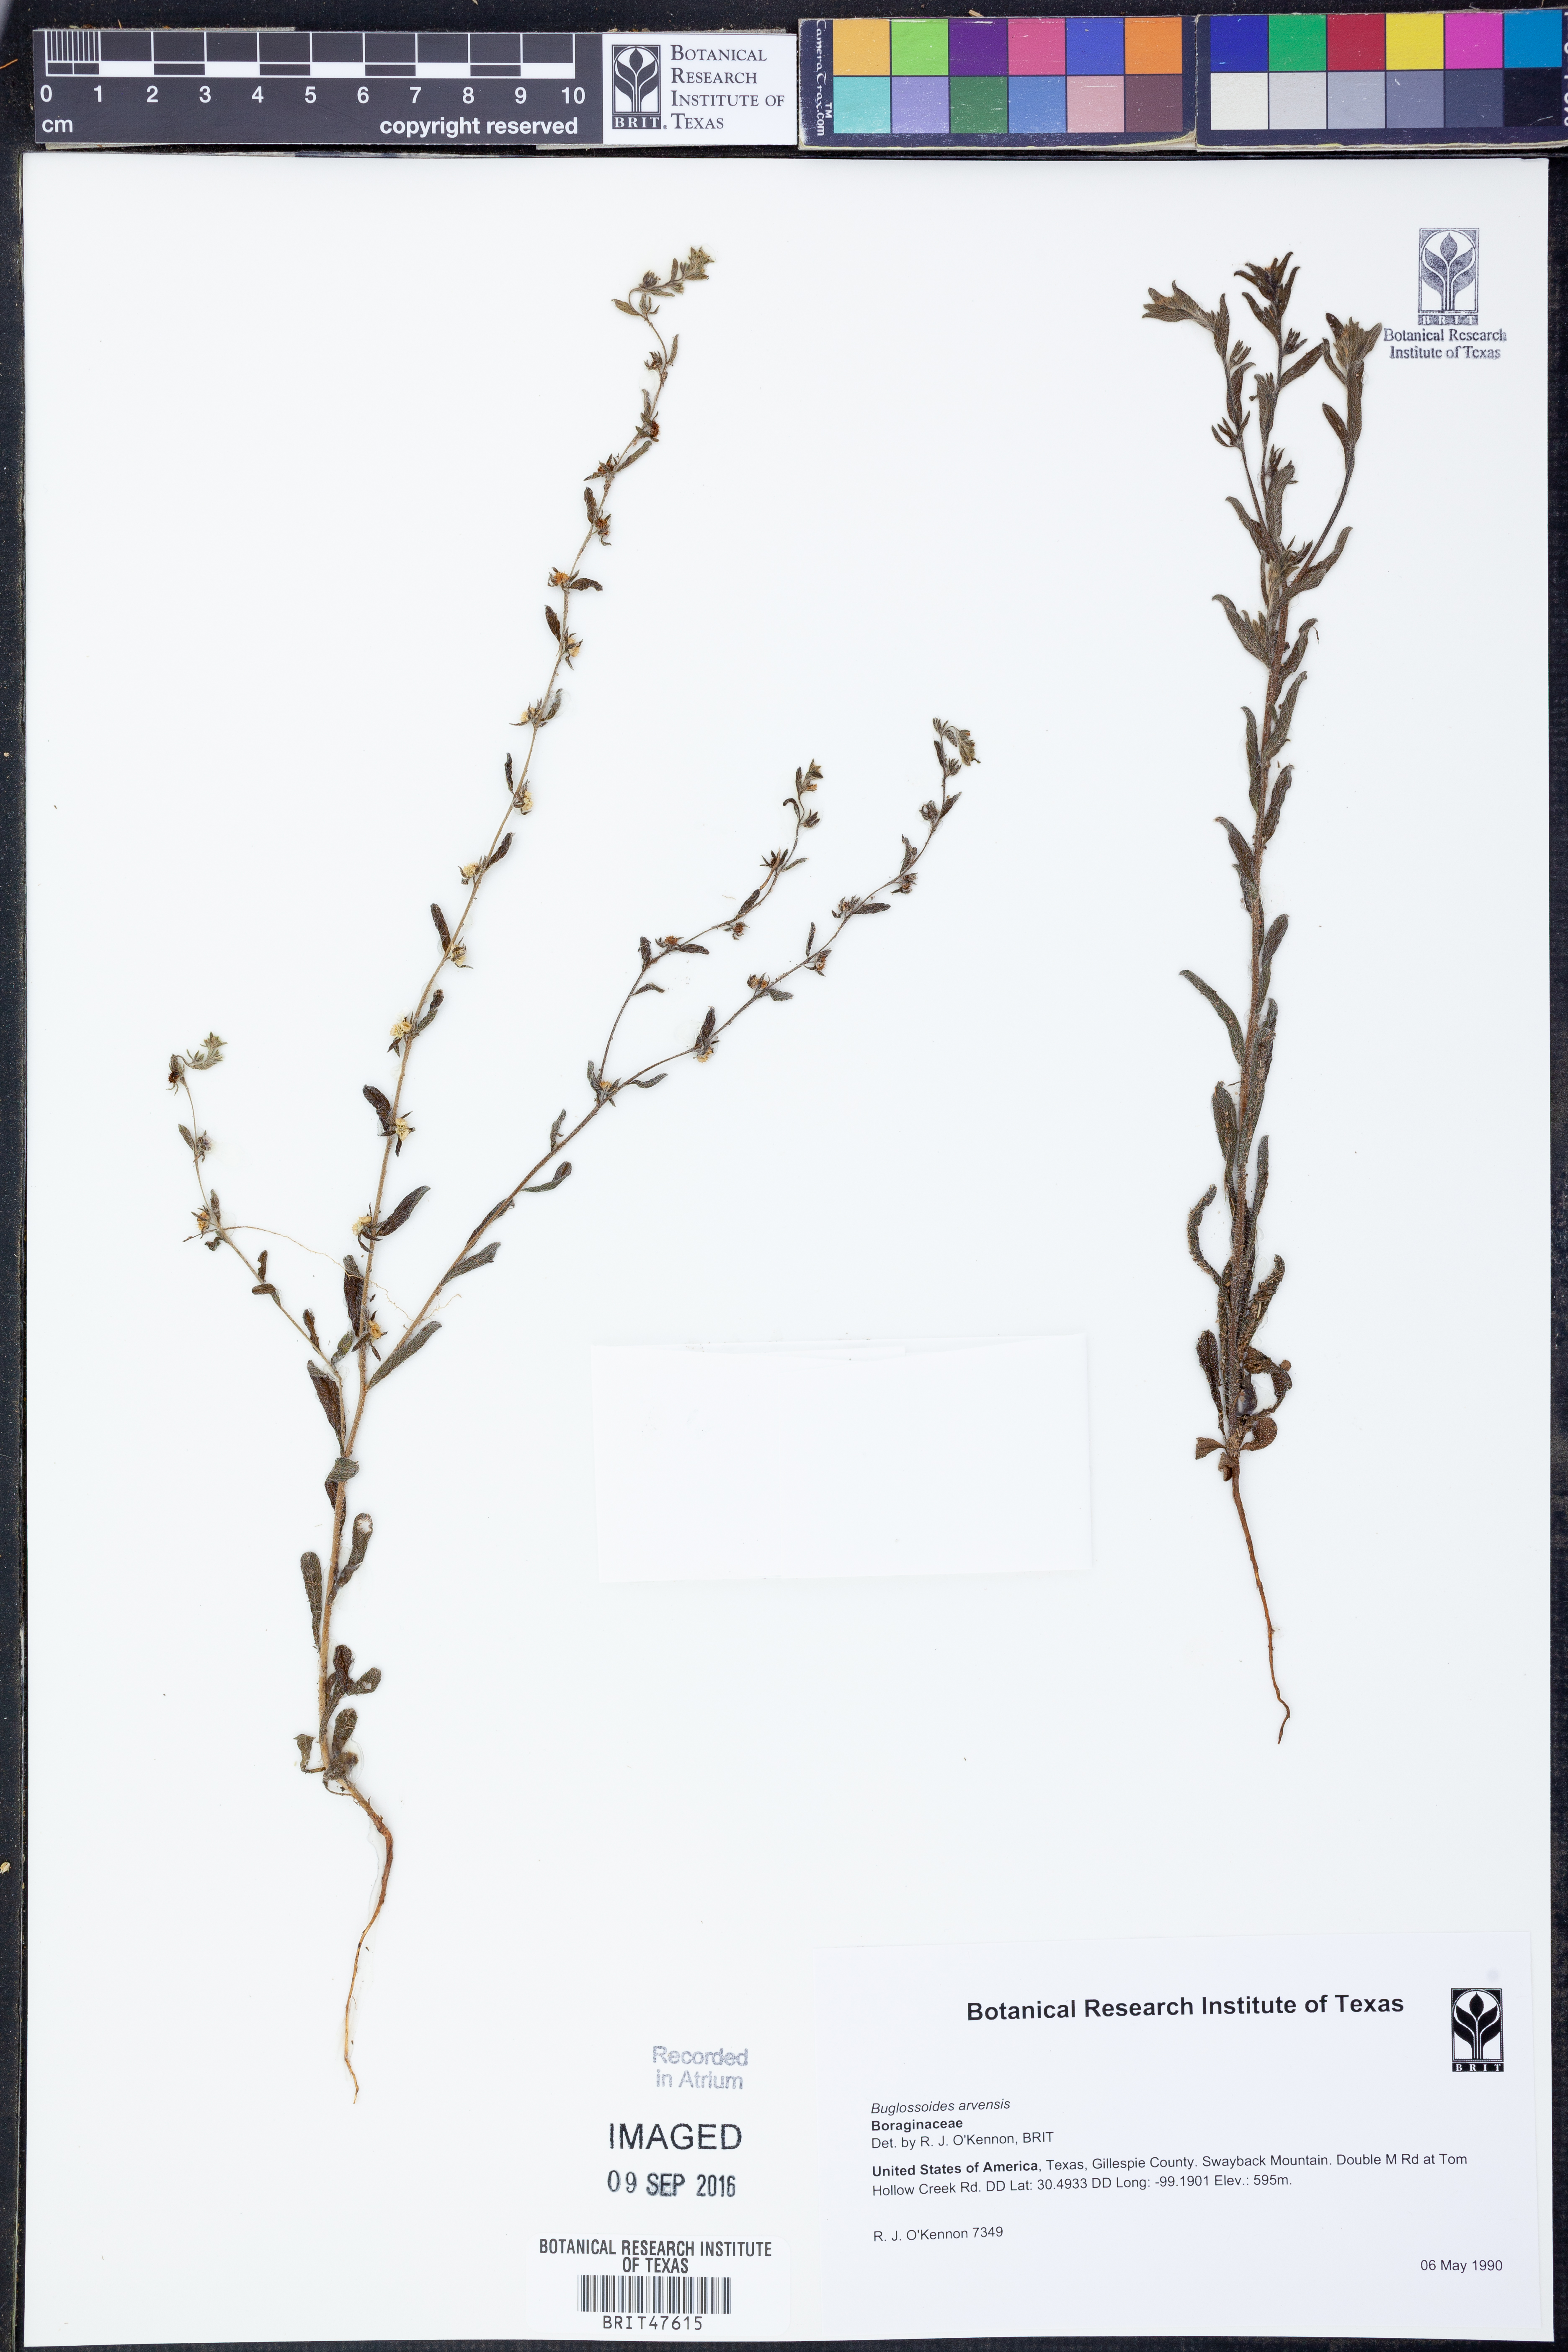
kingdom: Plantae
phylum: Tracheophyta
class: Magnoliopsida
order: Boraginales
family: Boraginaceae
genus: Buglossoides
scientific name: Buglossoides arvensis
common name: Corn gromwell
